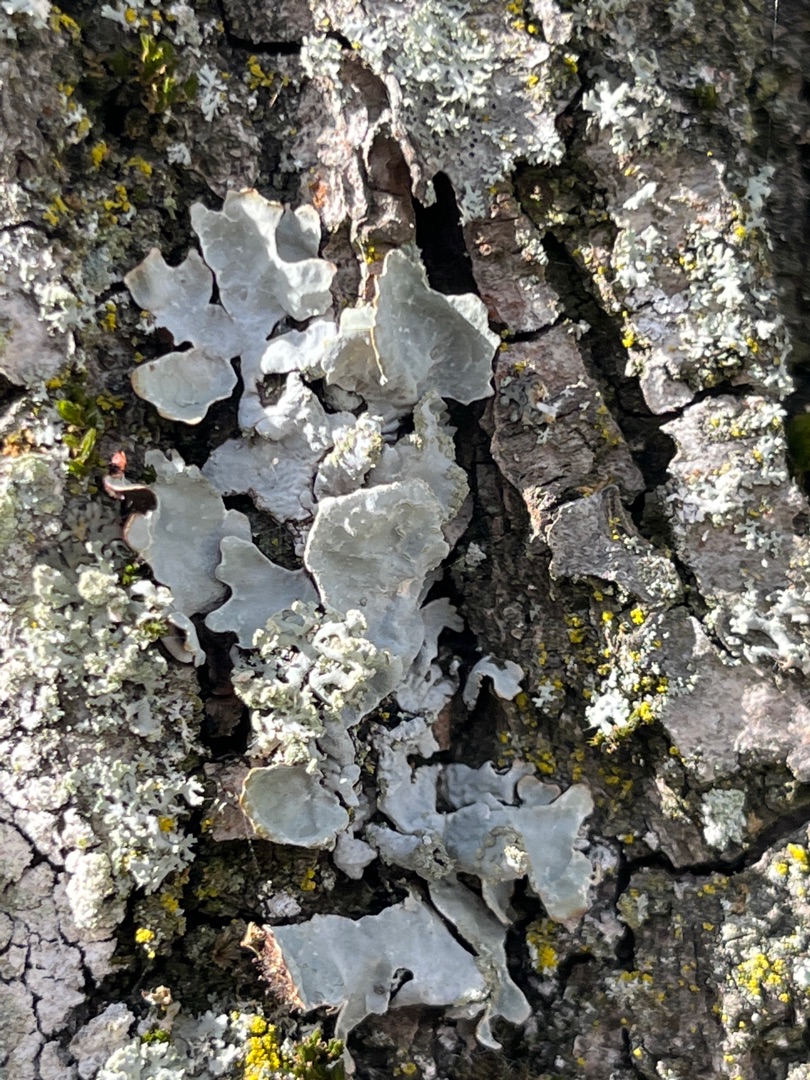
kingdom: Fungi
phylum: Ascomycota
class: Lecanoromycetes
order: Lecanorales
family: Parmeliaceae
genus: Parmelia
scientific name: Parmelia sulcata
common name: Rynket skållav
